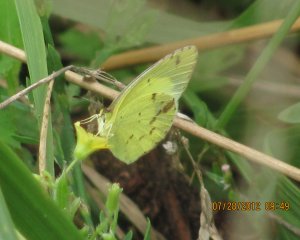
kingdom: Animalia
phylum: Arthropoda
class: Insecta
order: Lepidoptera
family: Pieridae
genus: Pyrisitia
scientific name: Pyrisitia lisa
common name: Little Yellow
